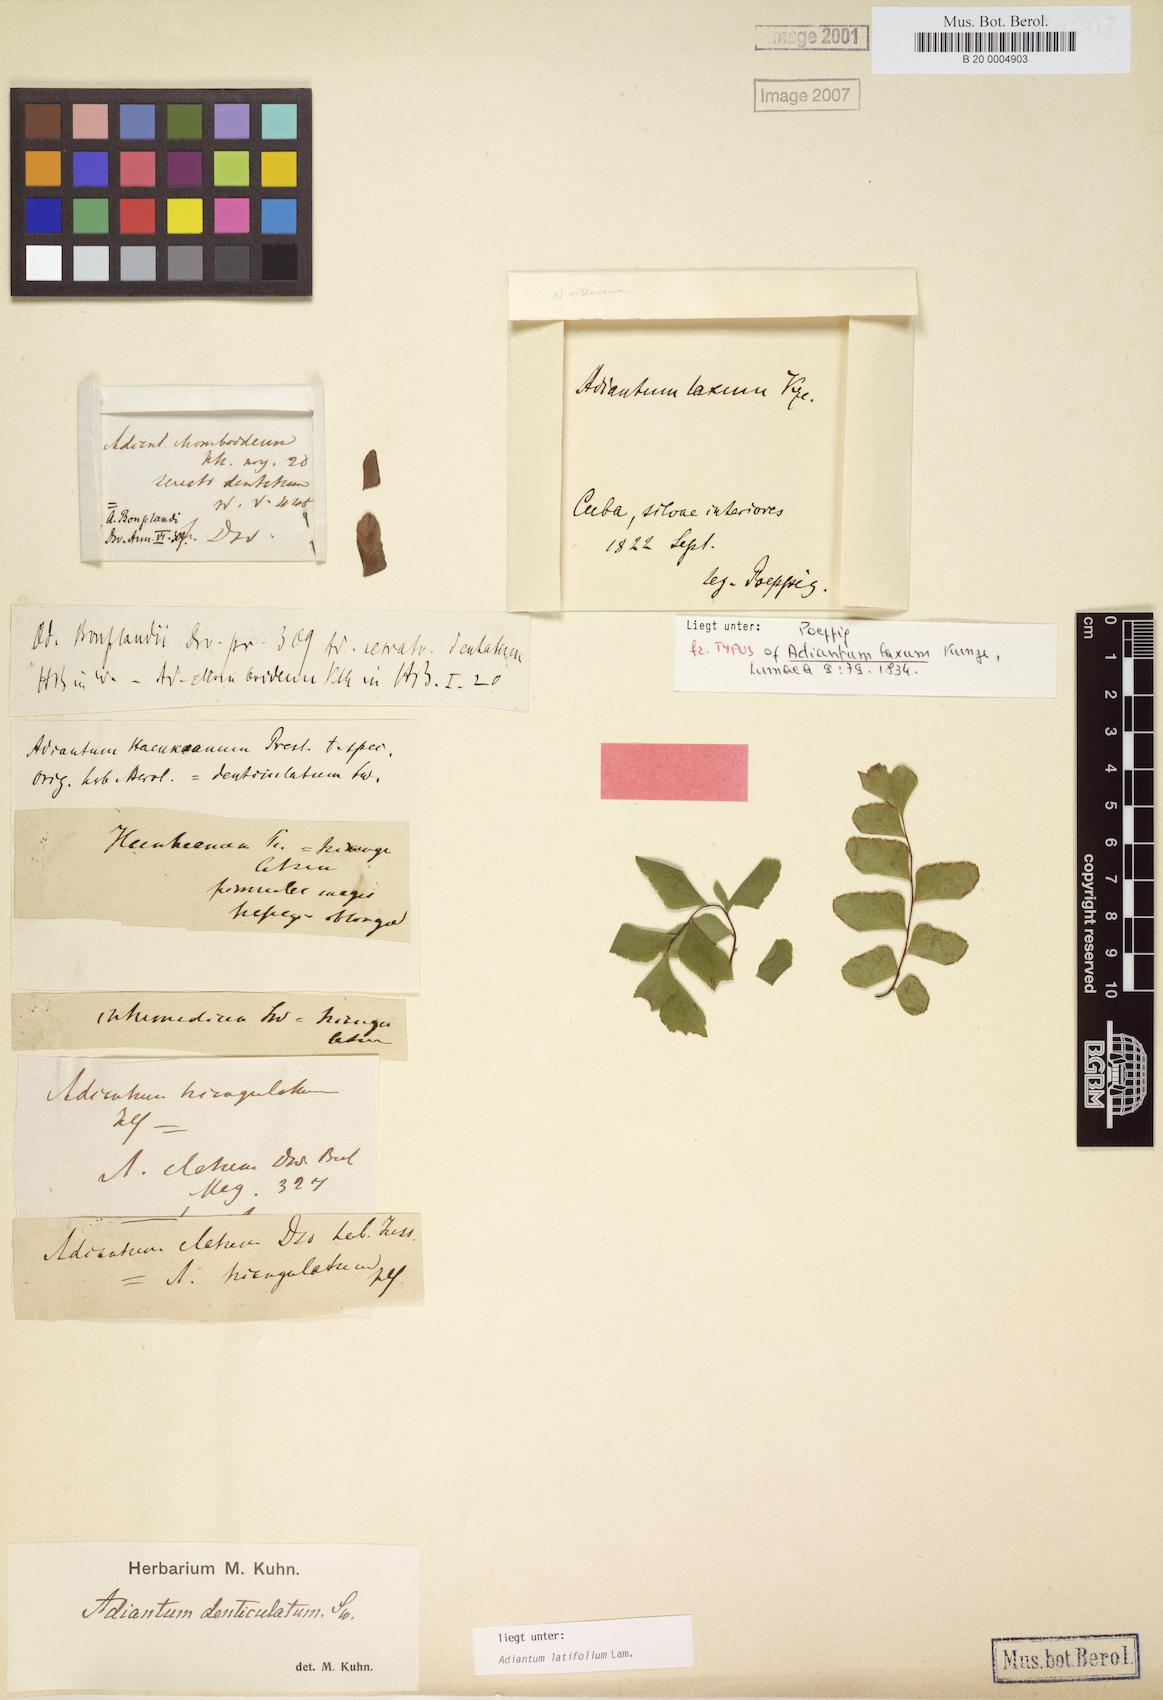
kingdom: Plantae
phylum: Tracheophyta
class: Polypodiopsida
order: Polypodiales
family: Pteridaceae
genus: Adiantum
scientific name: Adiantum latifolium
